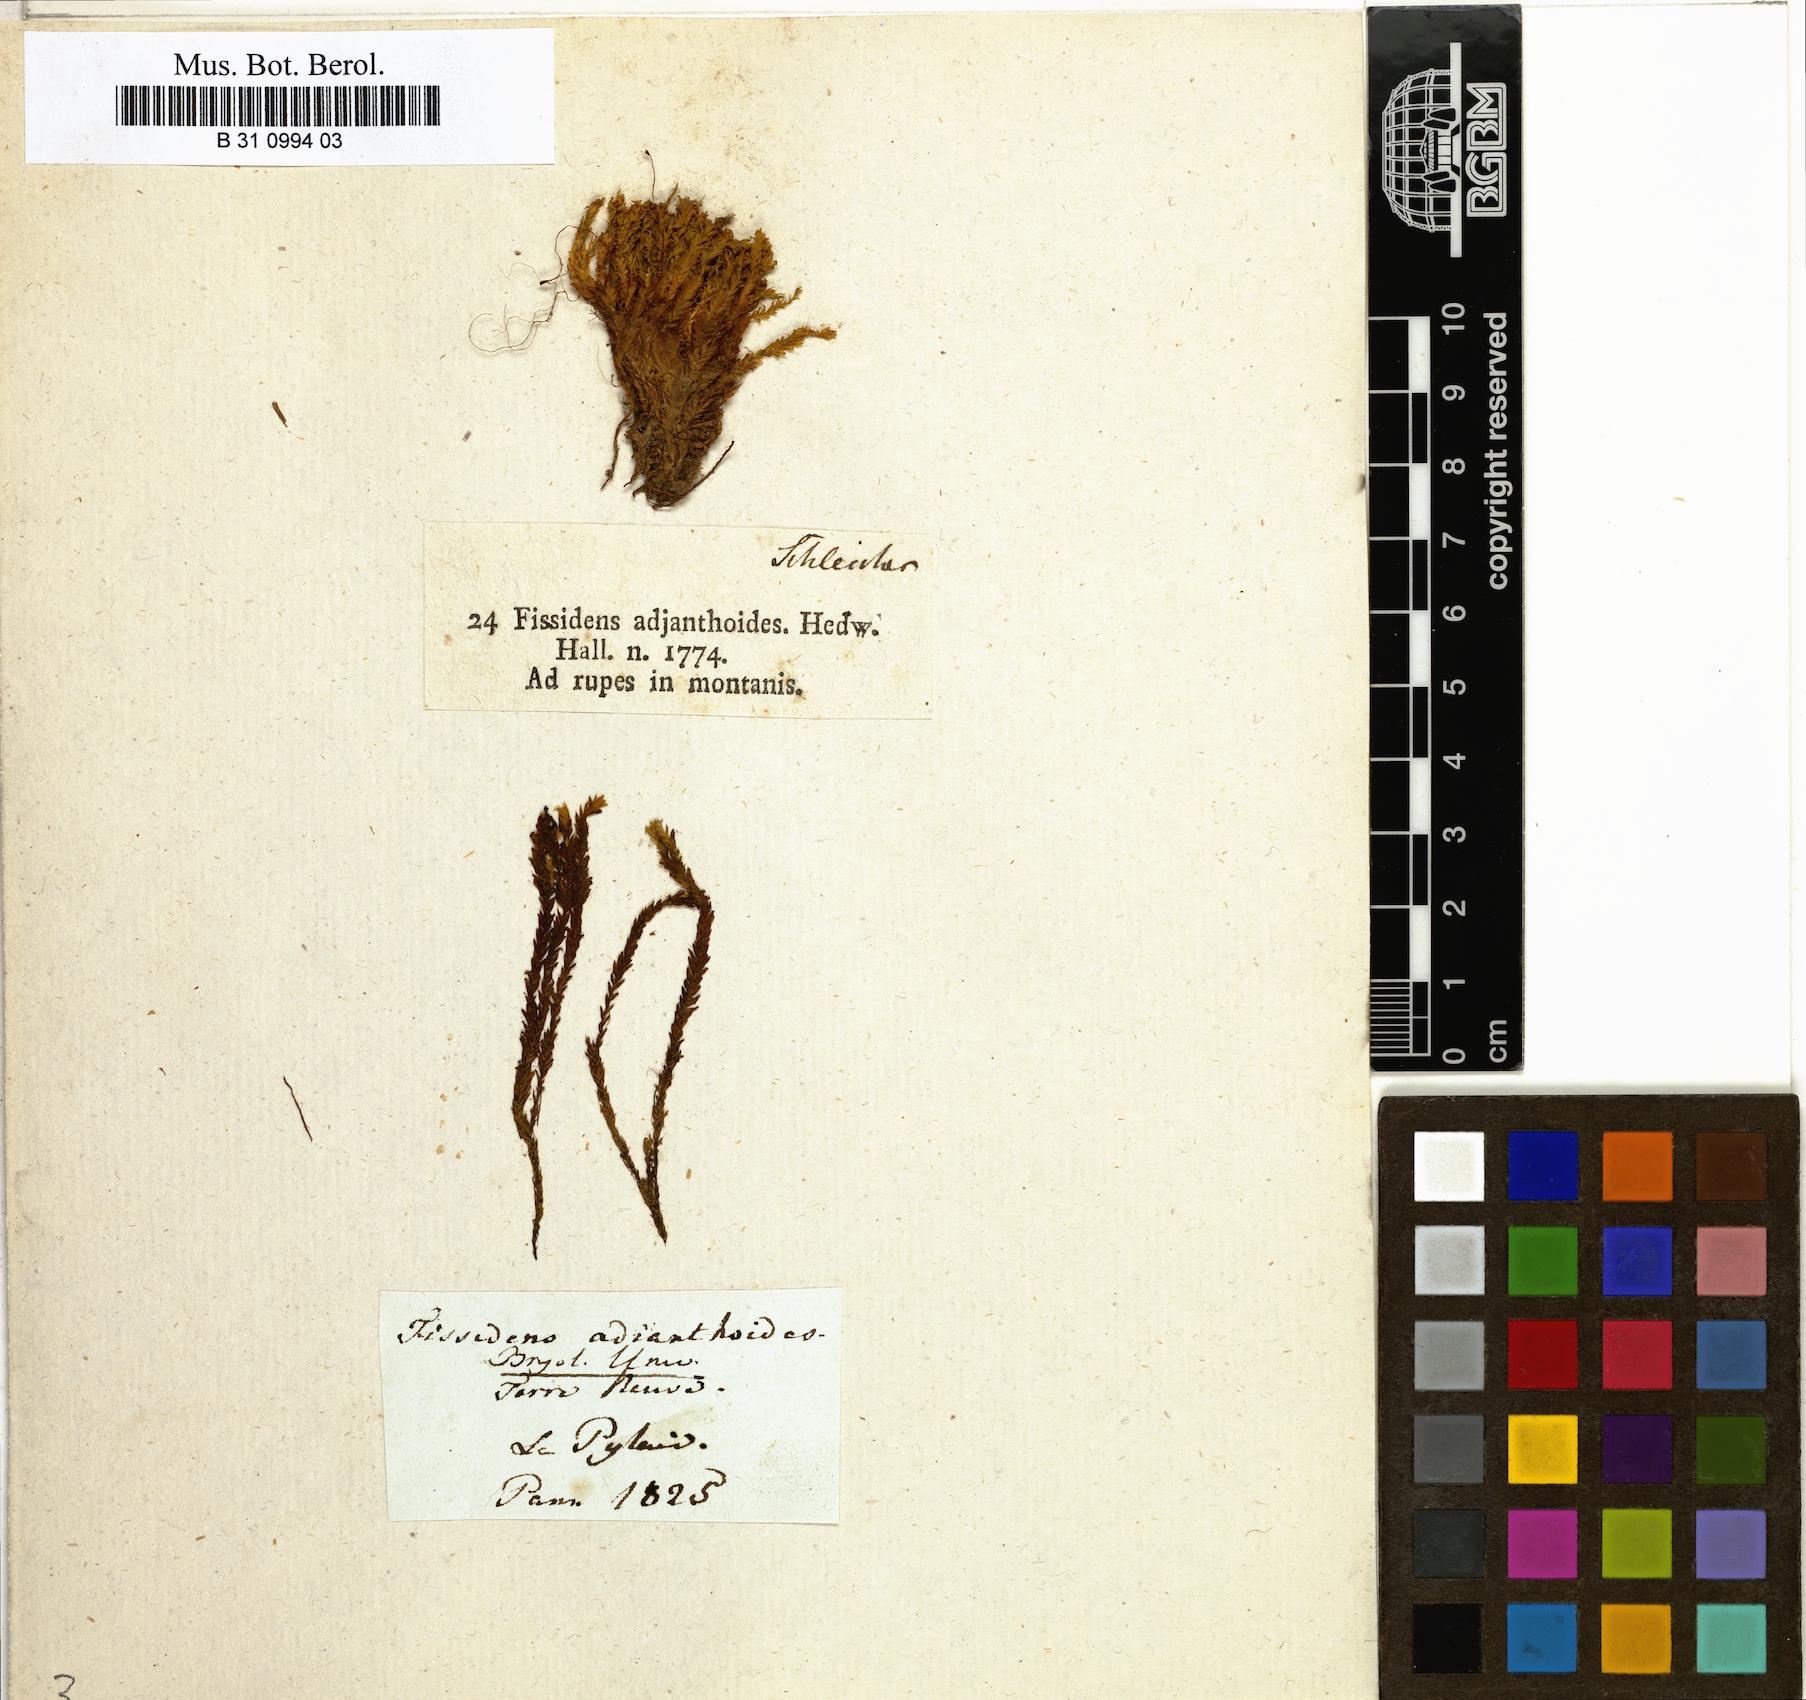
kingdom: Plantae
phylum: Bryophyta
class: Bryopsida
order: Dicranales
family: Fissidentaceae
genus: Fissidens
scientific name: Fissidens adianthoides
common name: Maidenhair pocket moss
